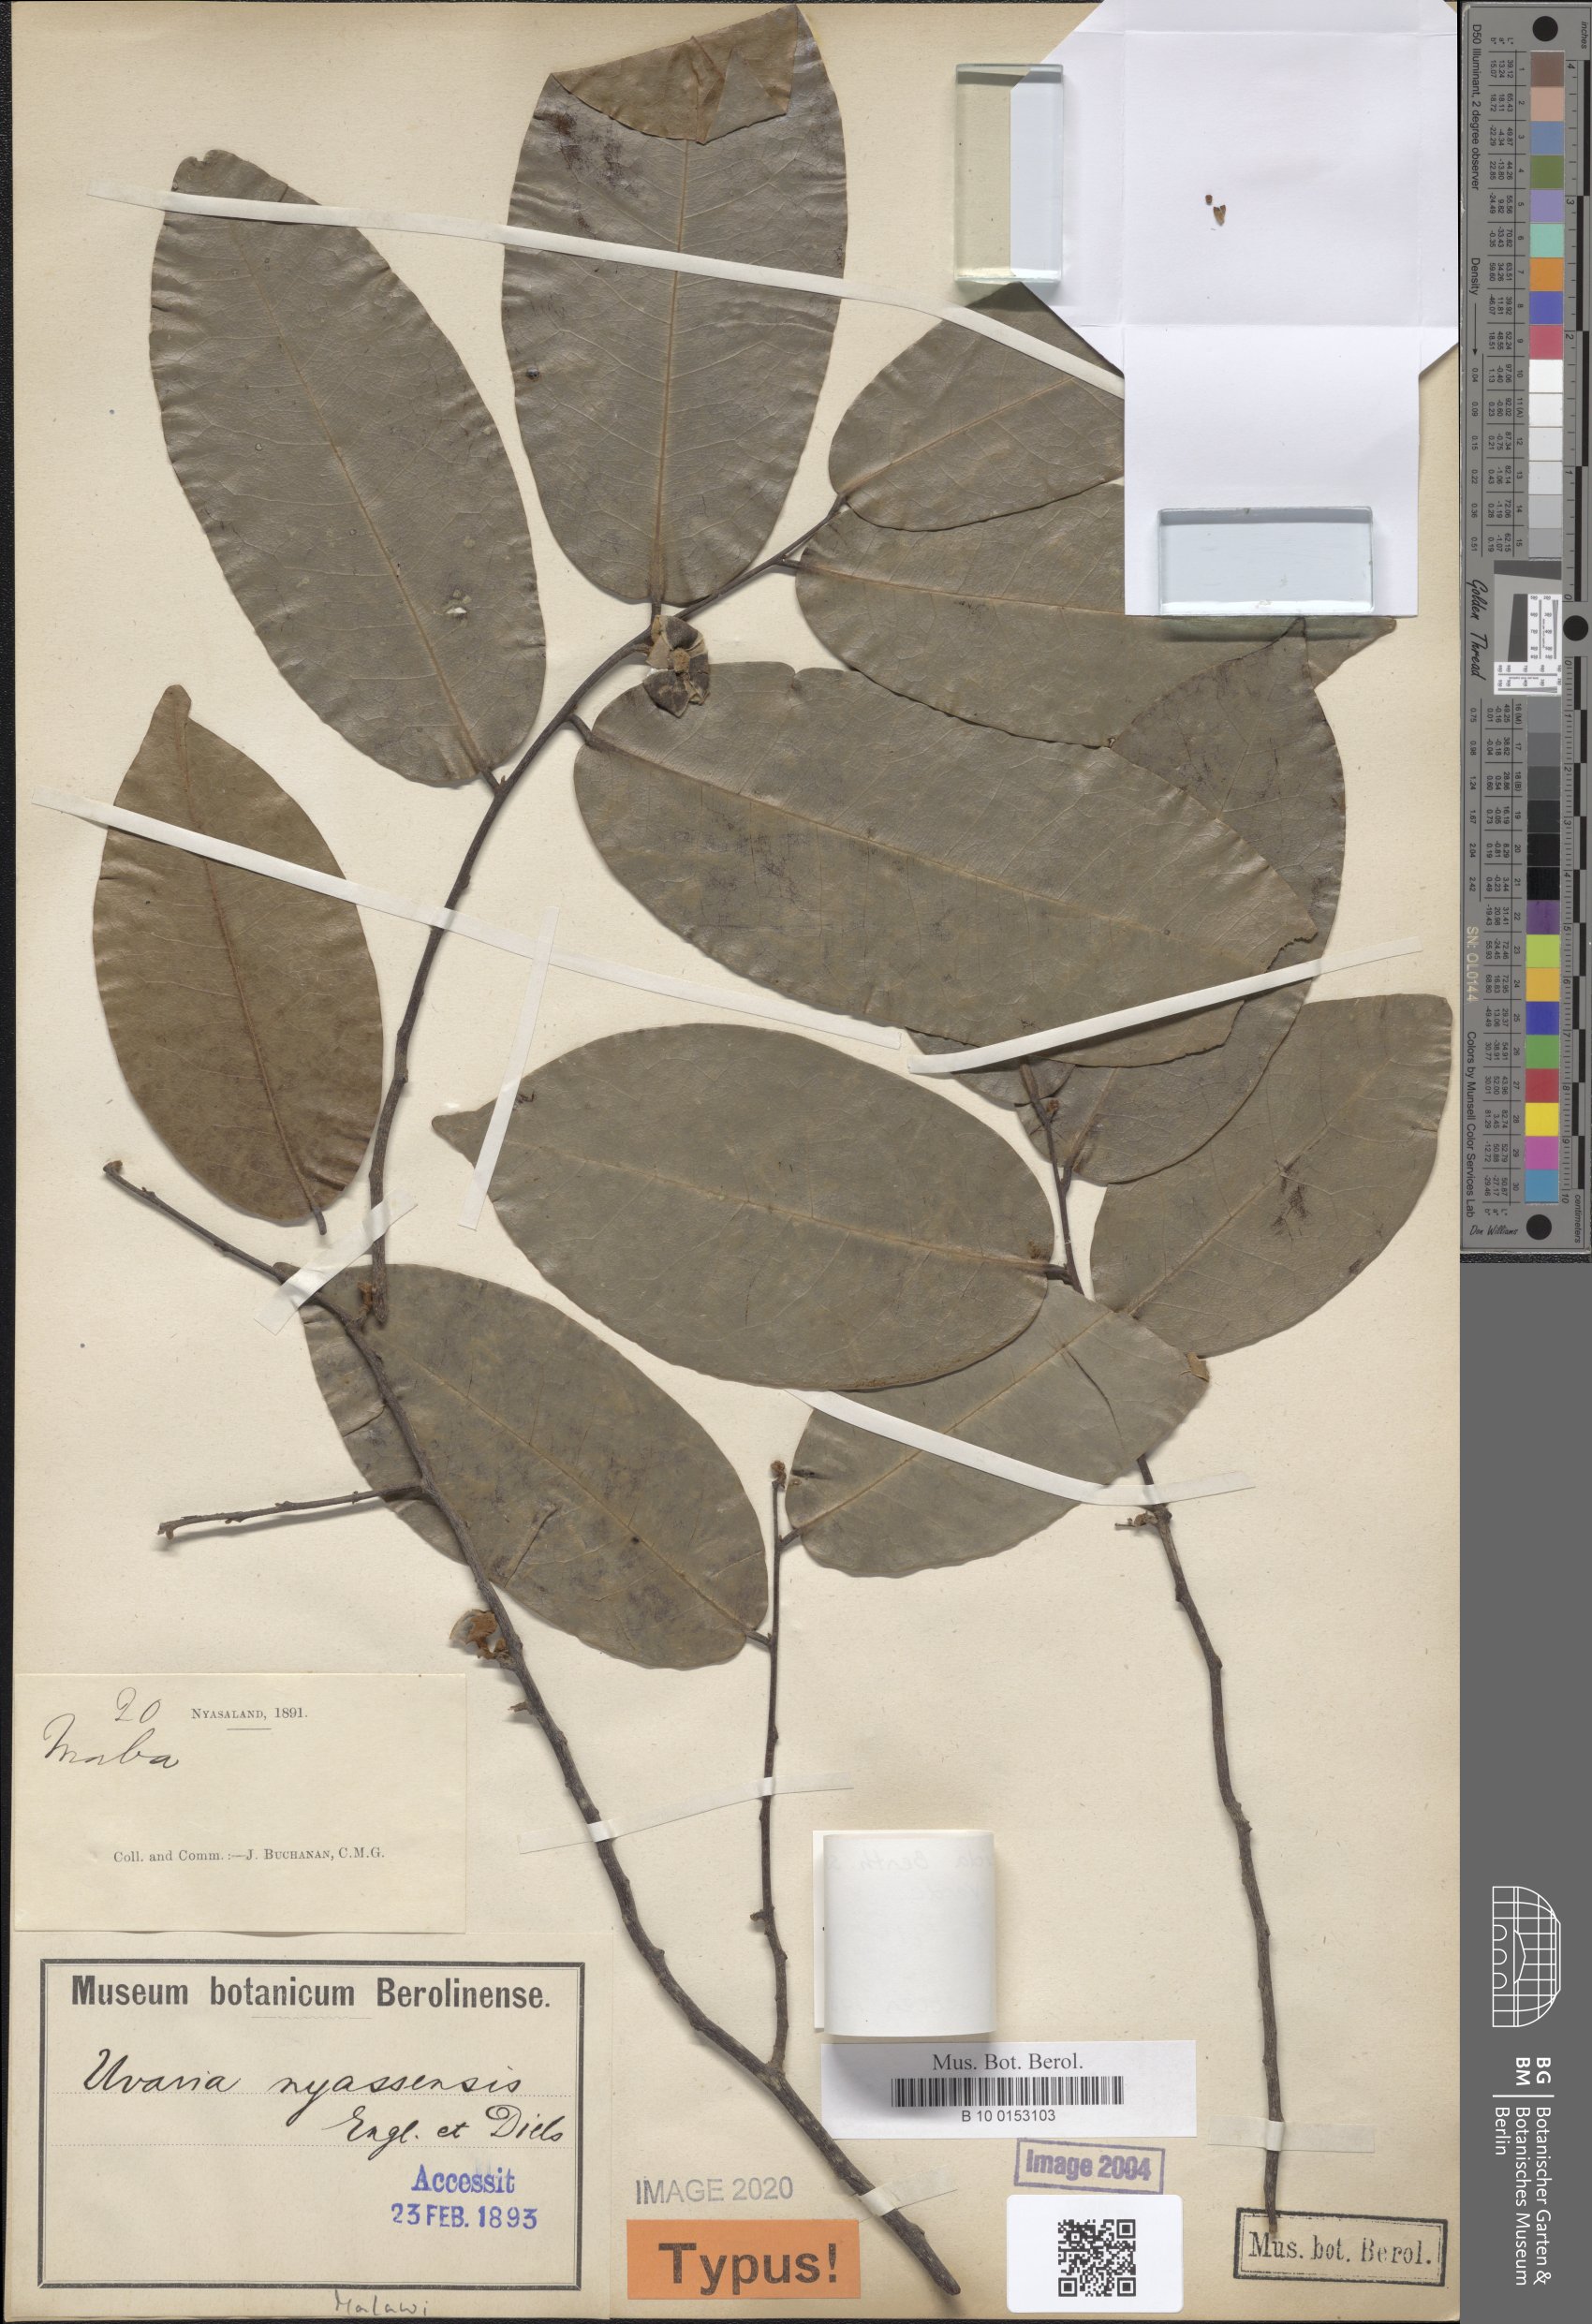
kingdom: Plantae
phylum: Tracheophyta
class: Magnoliopsida
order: Magnoliales
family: Annonaceae
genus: Uvaria
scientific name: Uvaria lucida
